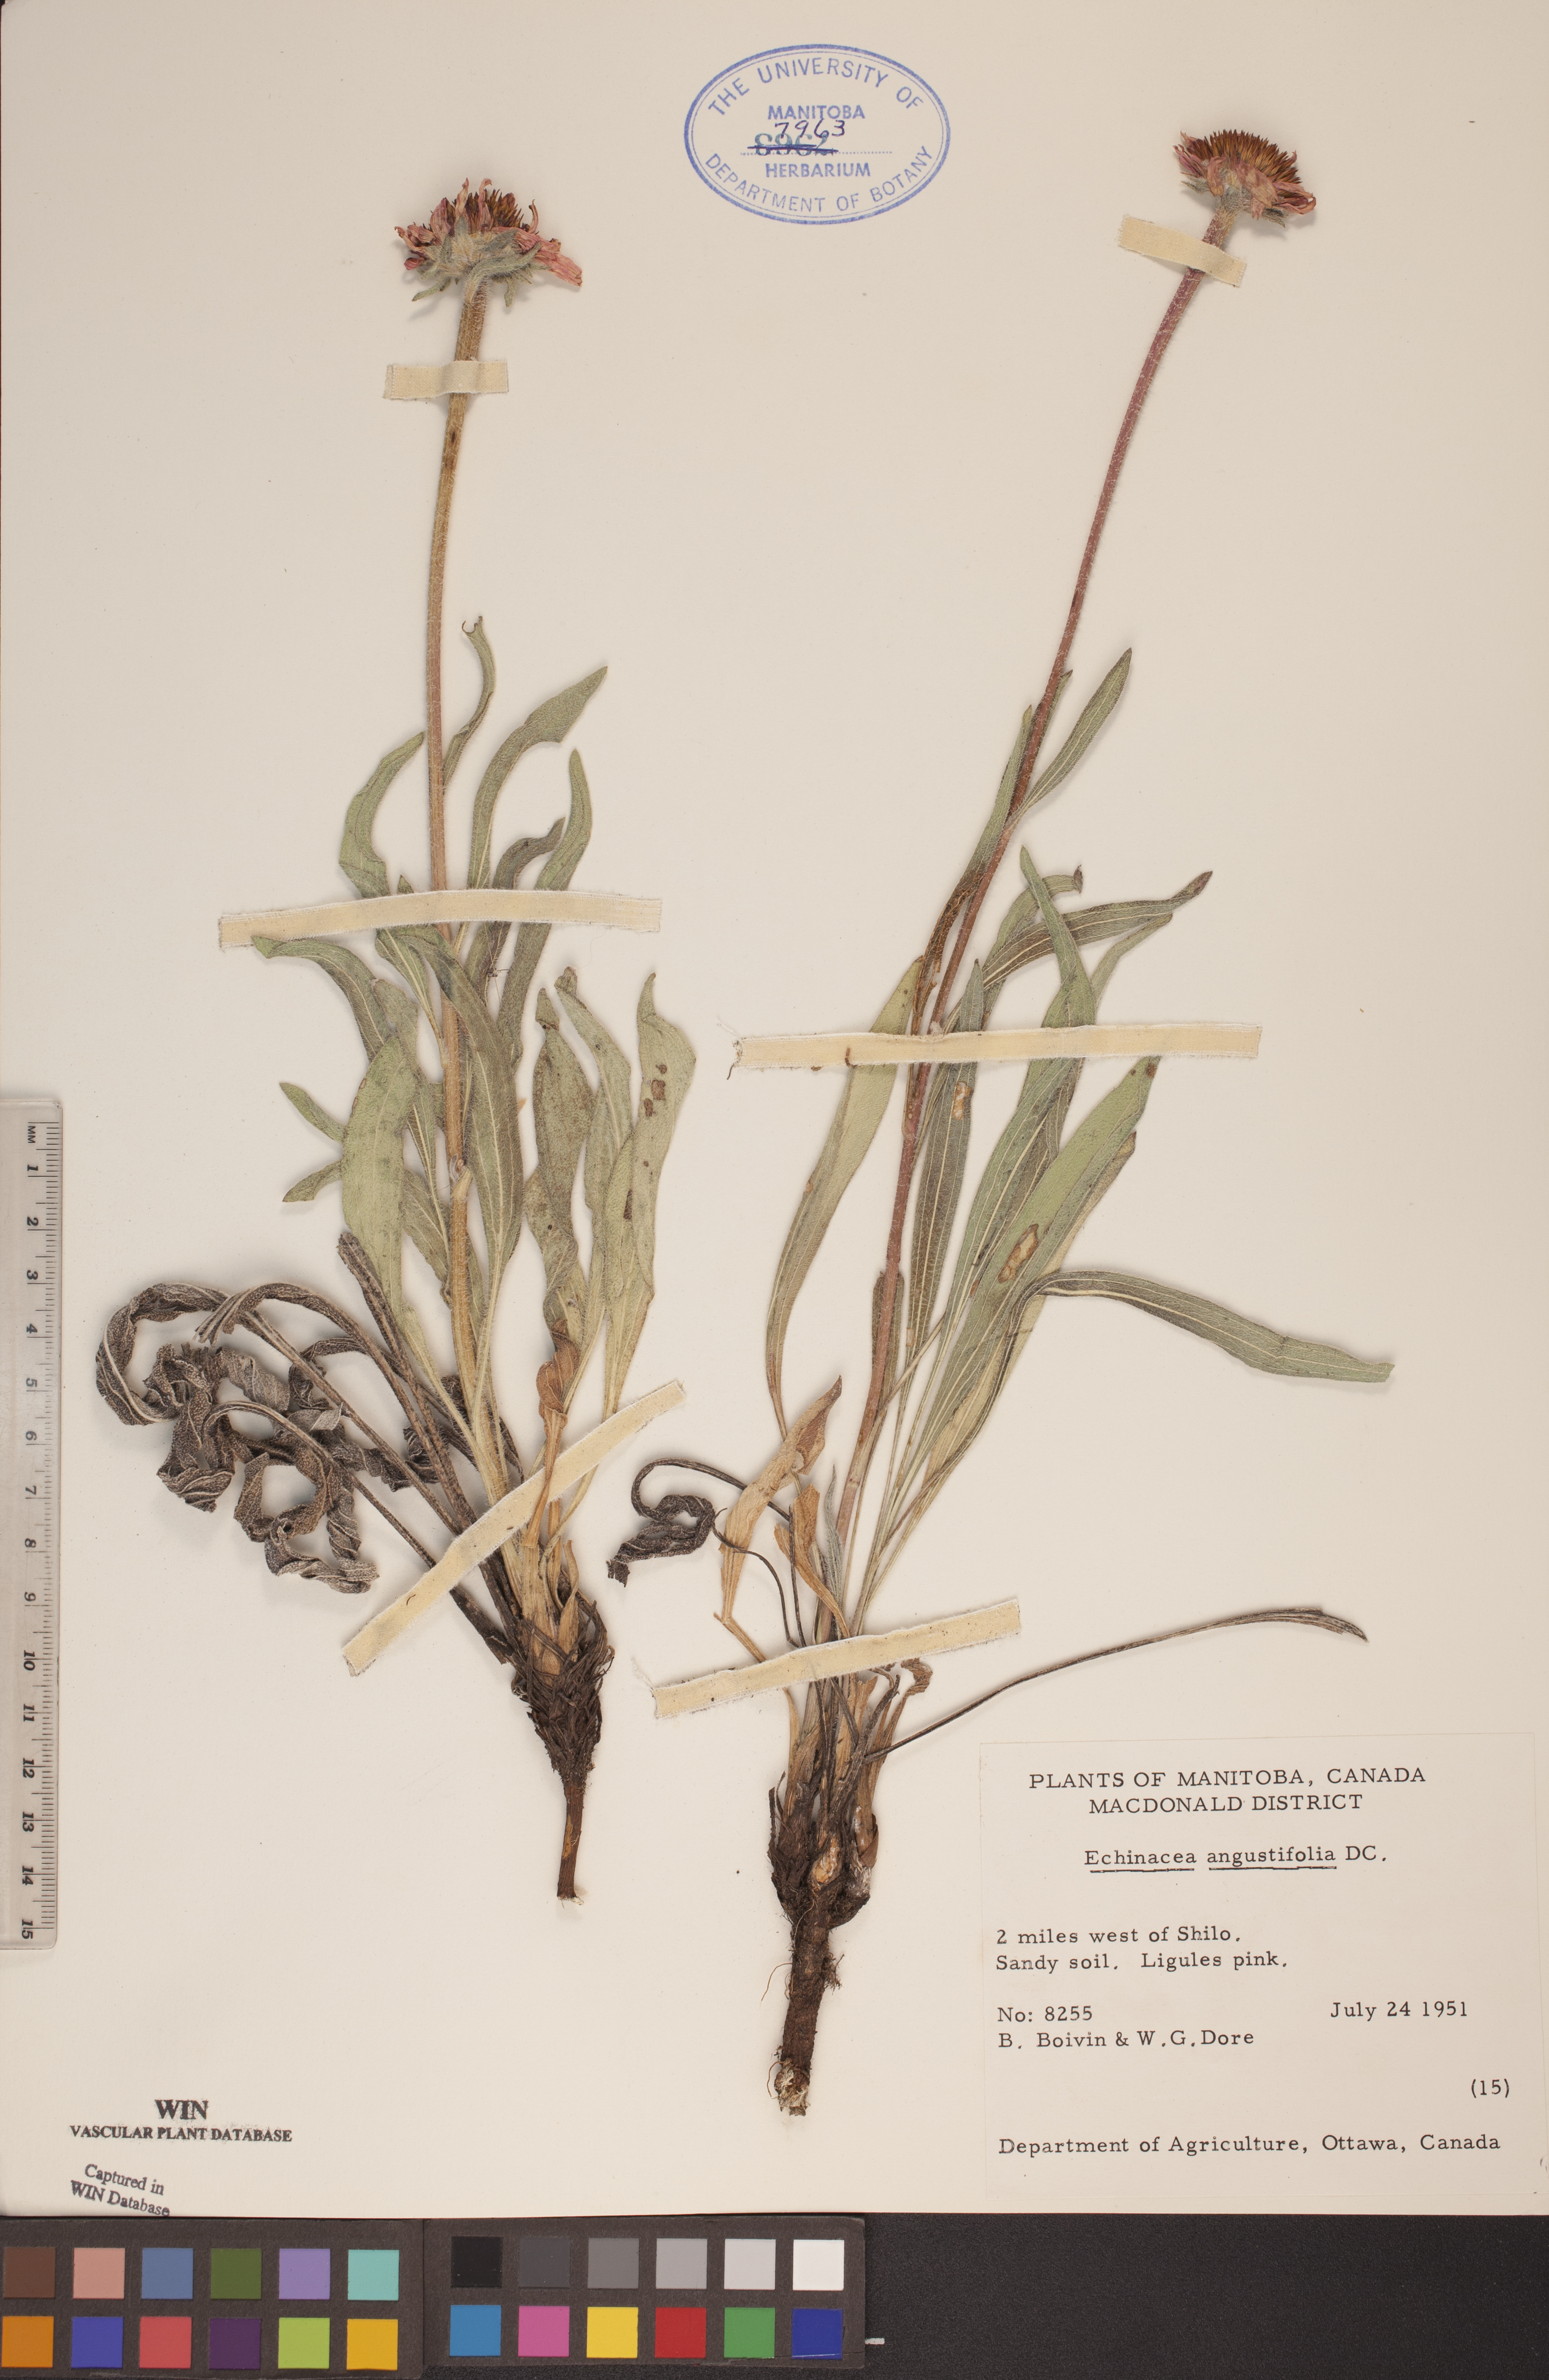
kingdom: Plantae
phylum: Tracheophyta
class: Magnoliopsida
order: Asterales
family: Asteraceae
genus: Echinacea
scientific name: Echinacea angustifolia
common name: Black-sampson echinacea
